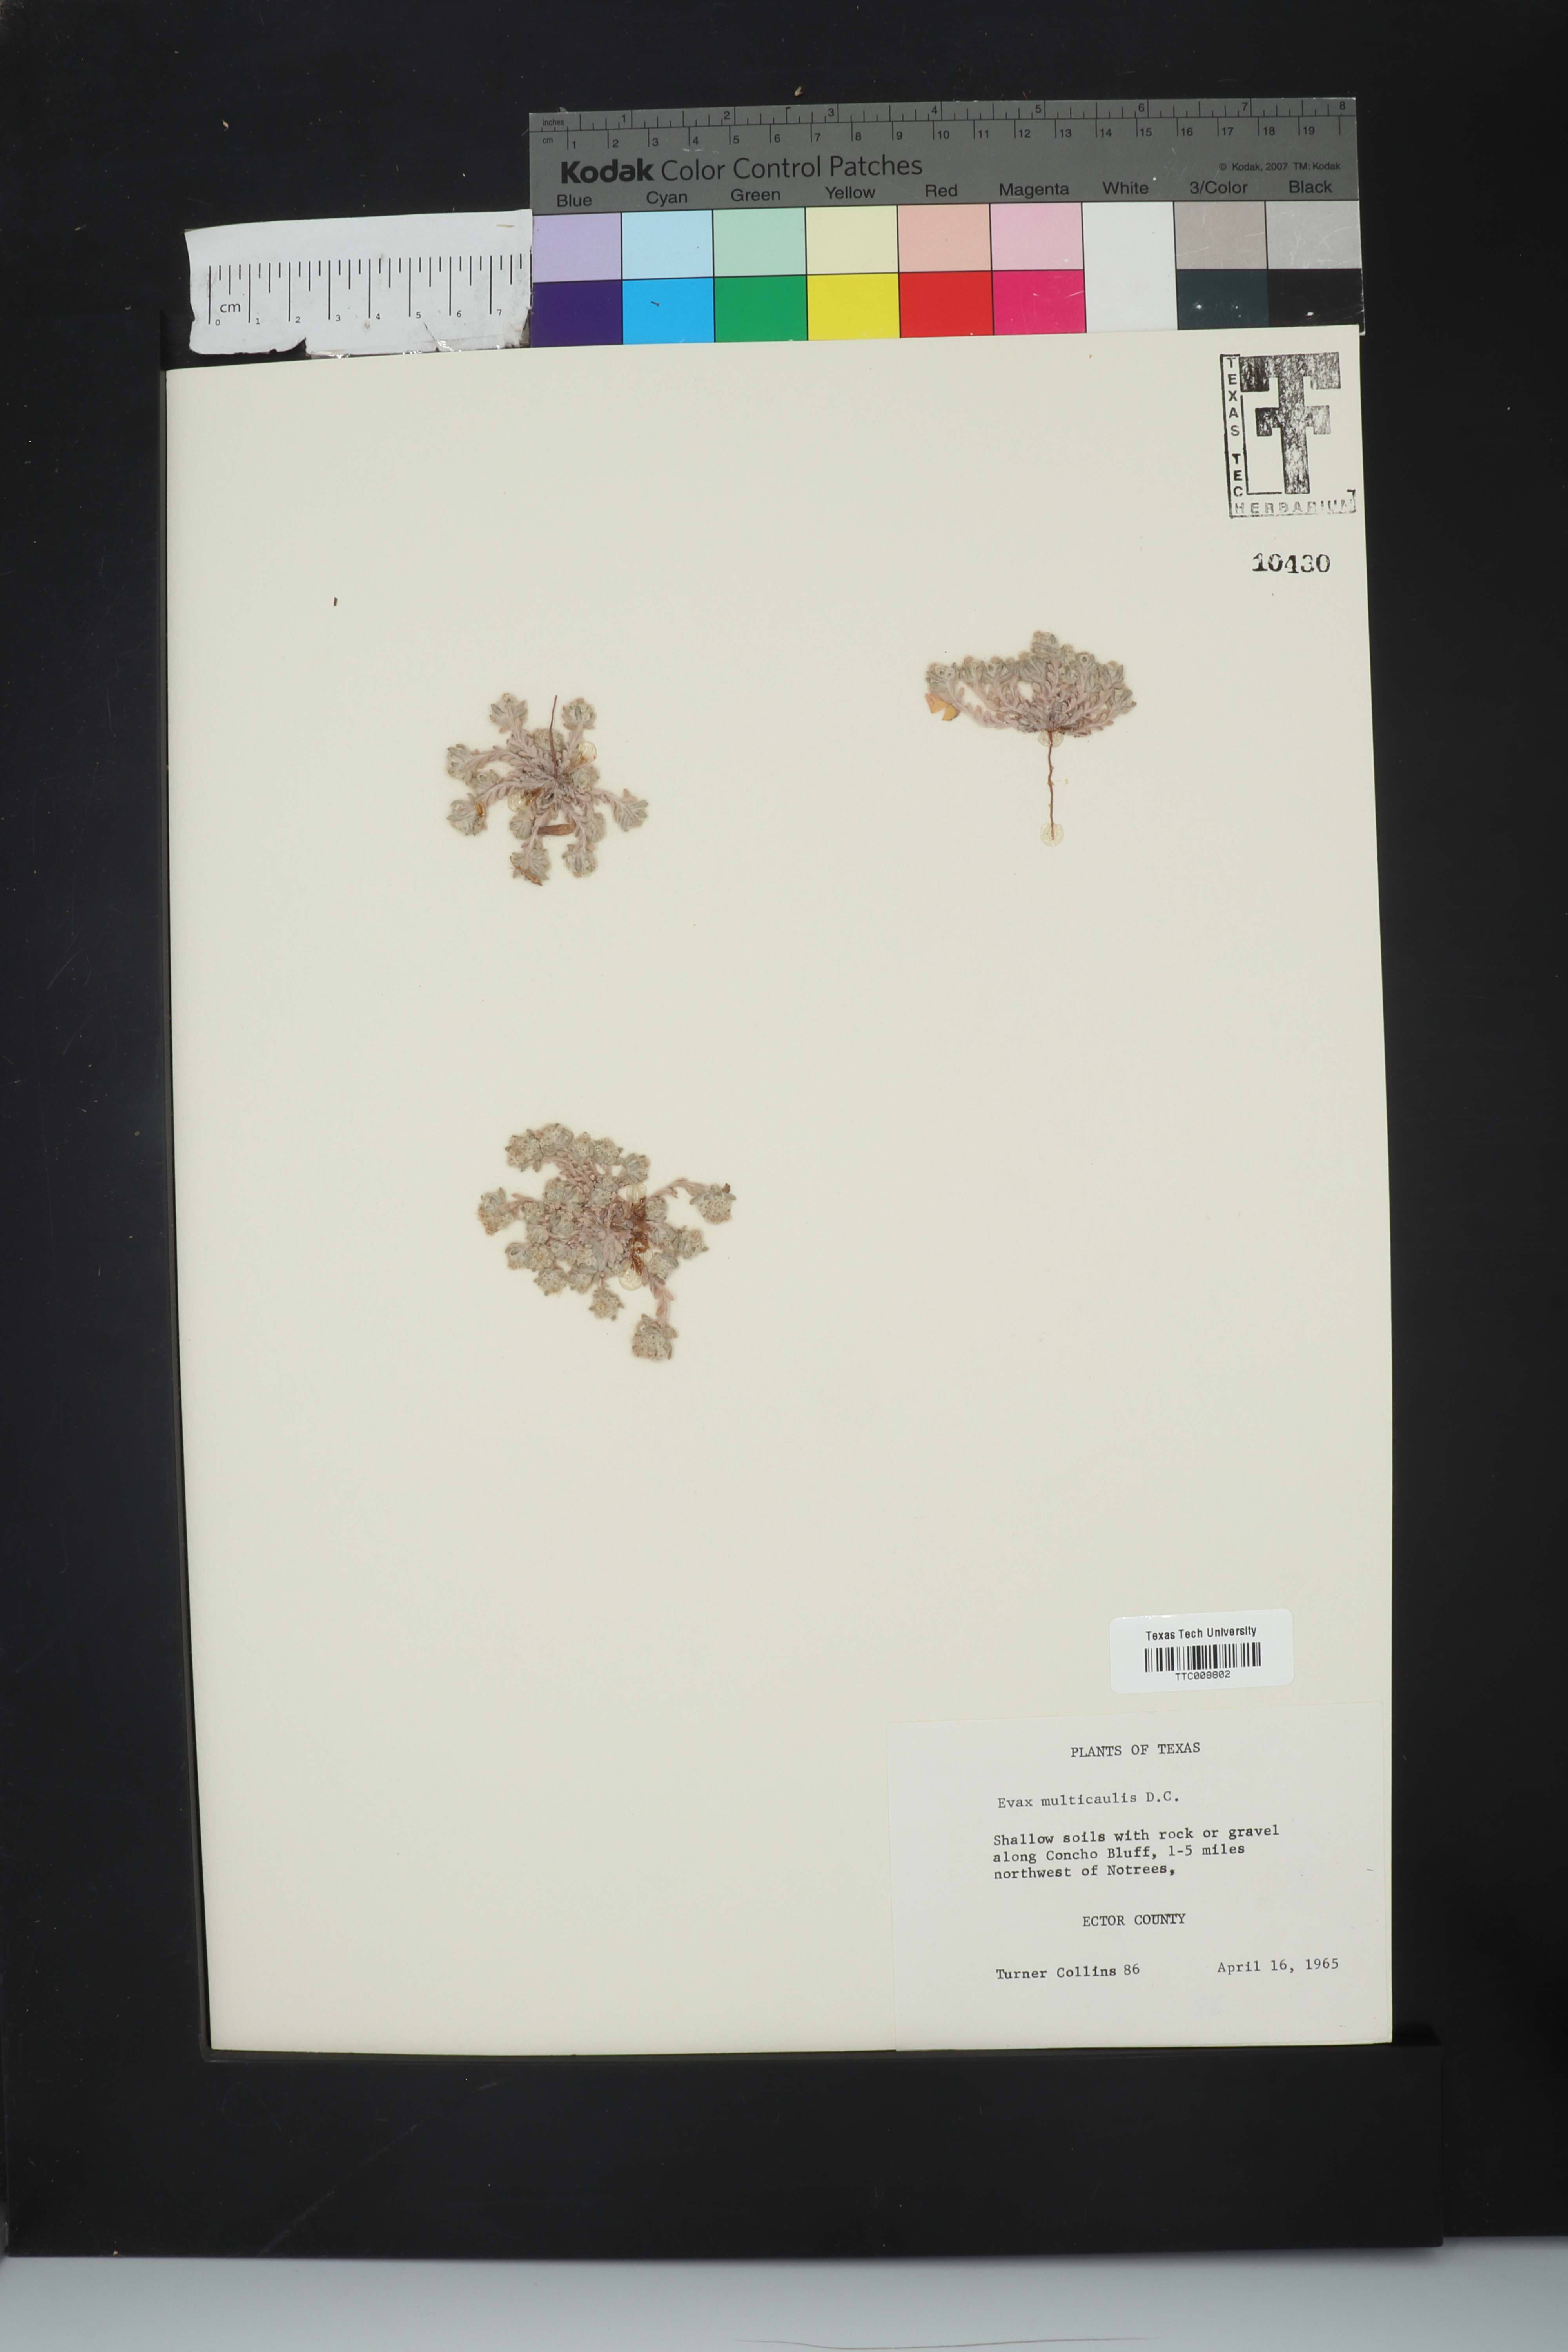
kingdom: Plantae
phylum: Tracheophyta
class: Magnoliopsida
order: Asterales
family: Asteraceae
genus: Diaperia
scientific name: Diaperia verna
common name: Many-stem rabbit-tobacco
